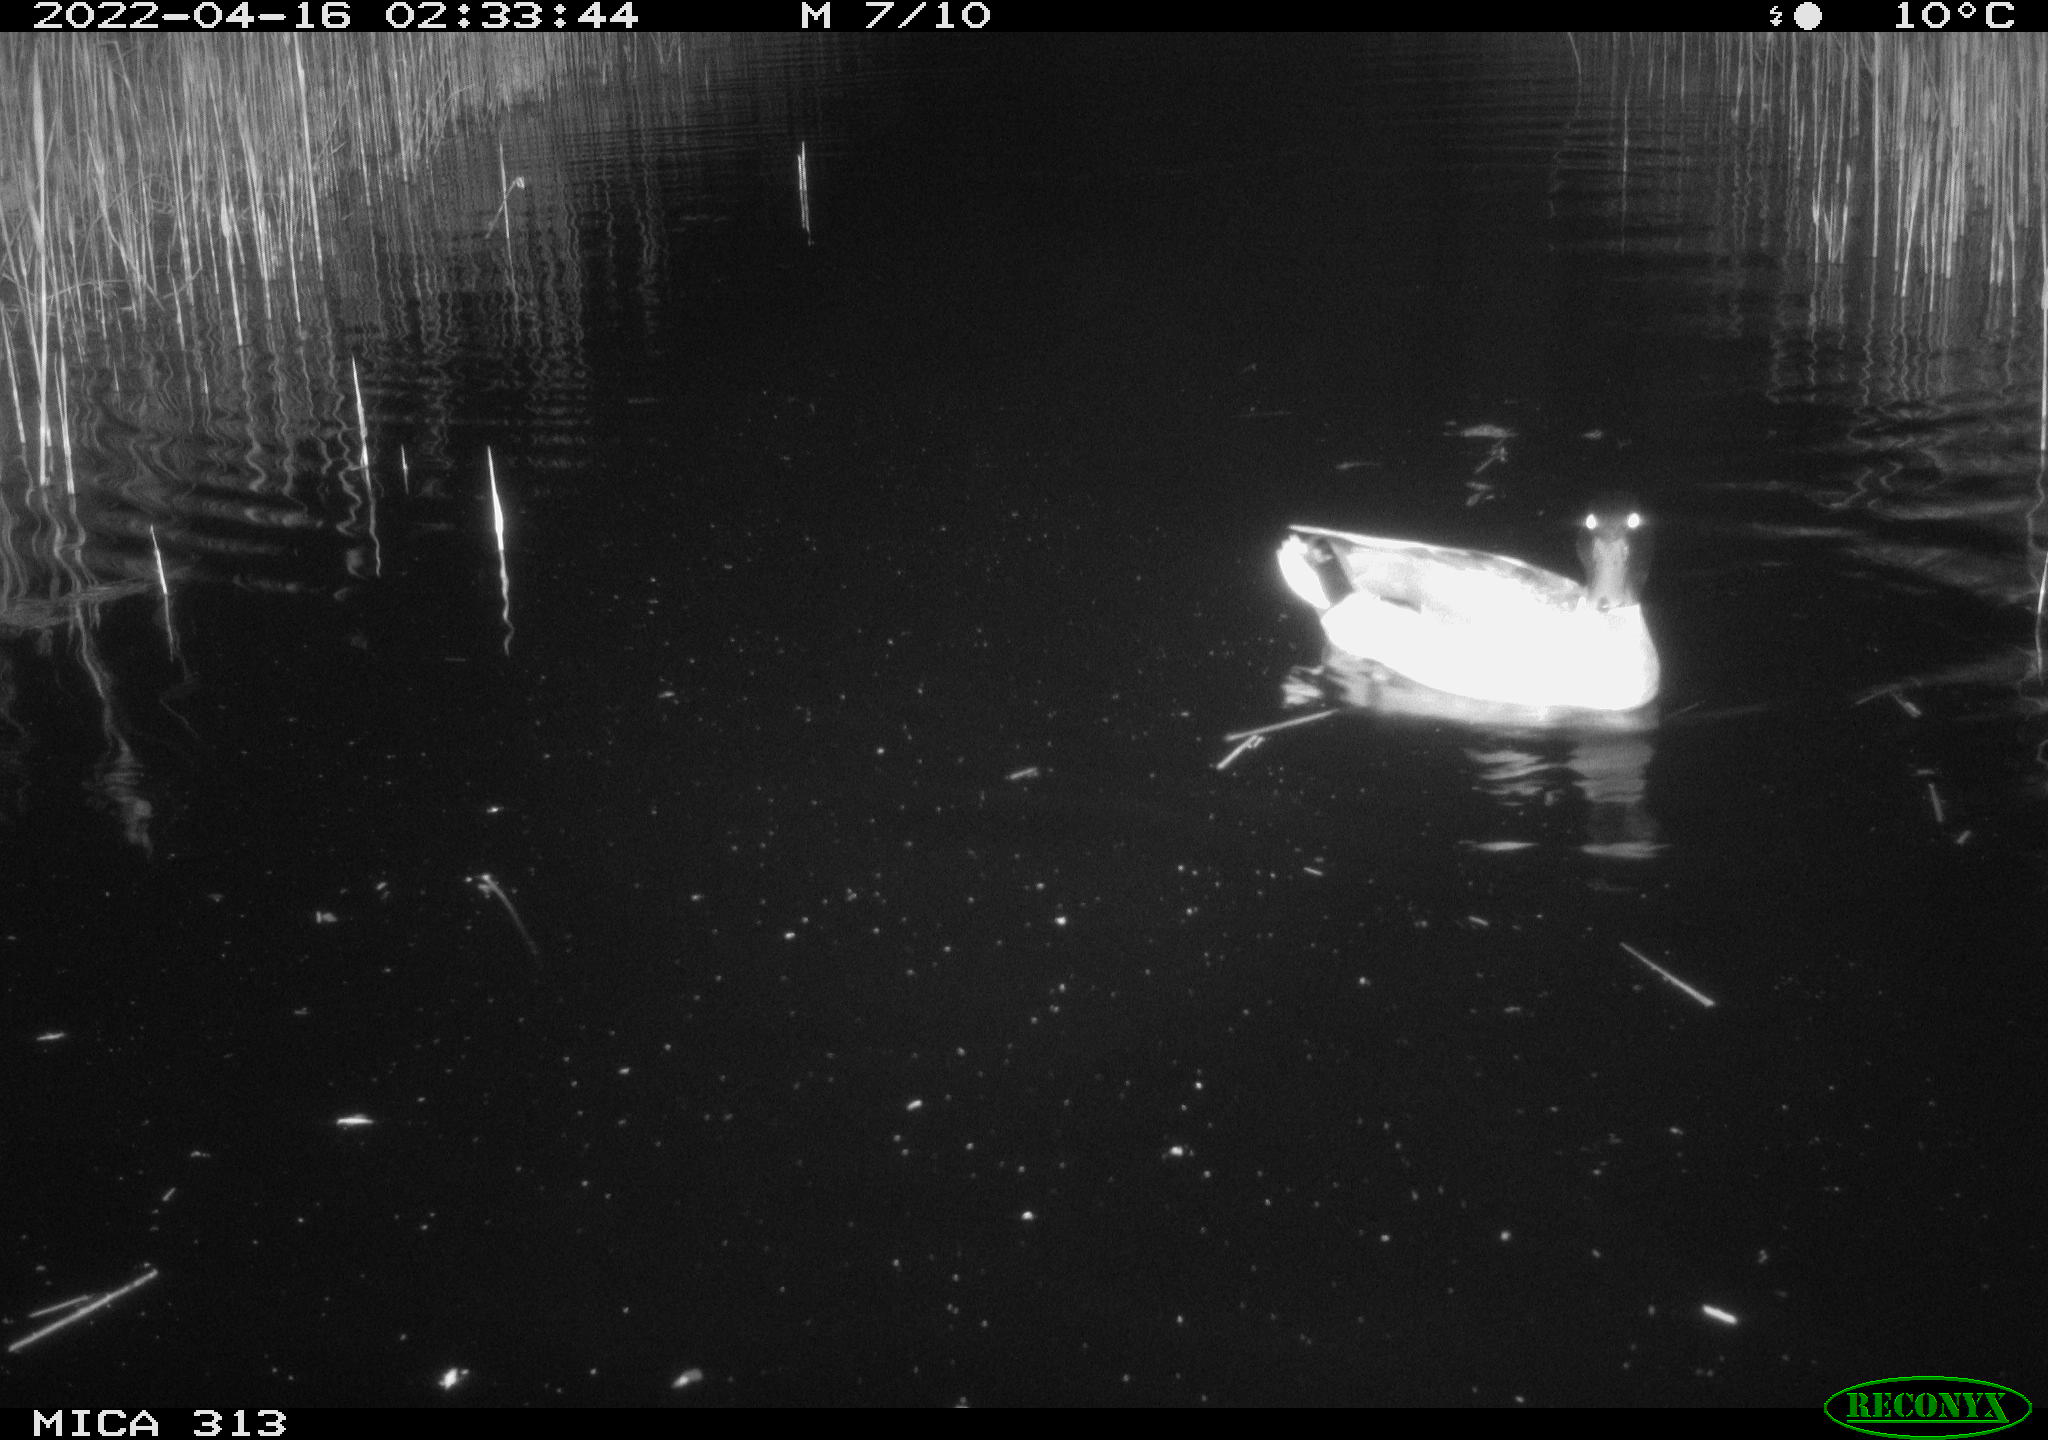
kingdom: Animalia
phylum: Chordata
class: Aves
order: Anseriformes
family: Anatidae
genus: Mareca
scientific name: Mareca strepera
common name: Gadwall
